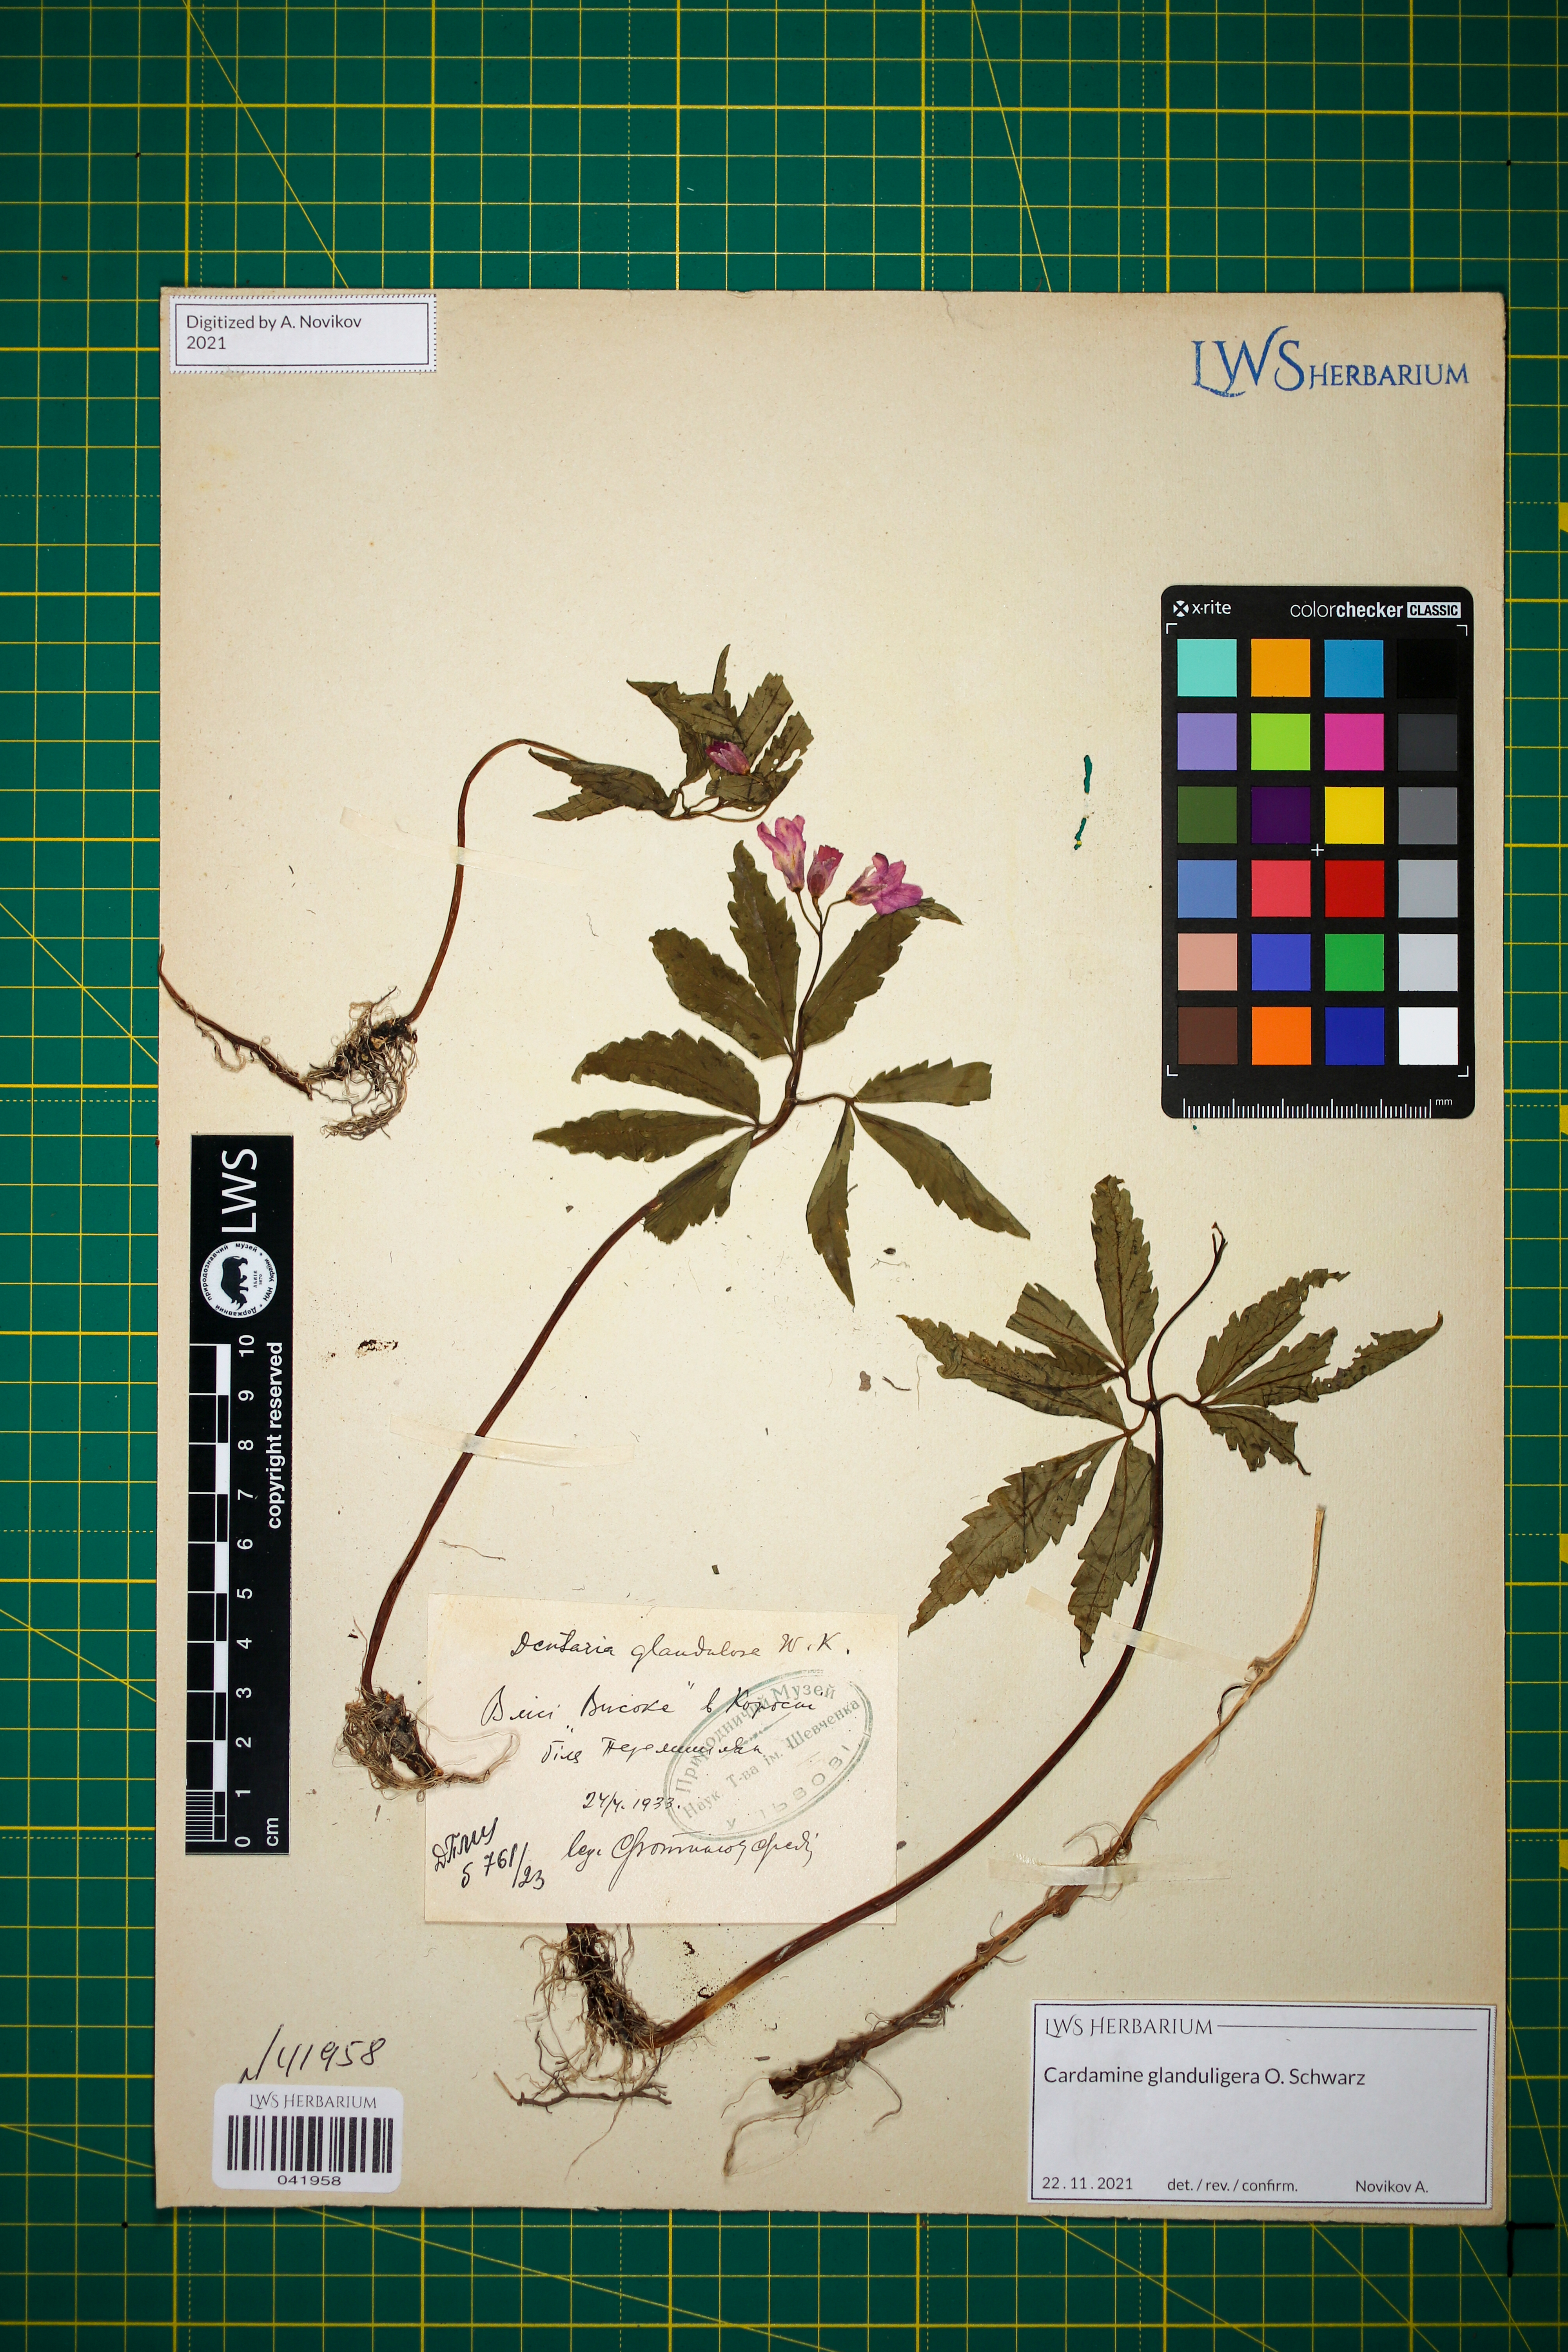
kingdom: Plantae
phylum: Tracheophyta
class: Magnoliopsida
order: Brassicales
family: Brassicaceae
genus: Cardamine
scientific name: Cardamine glanduligera
